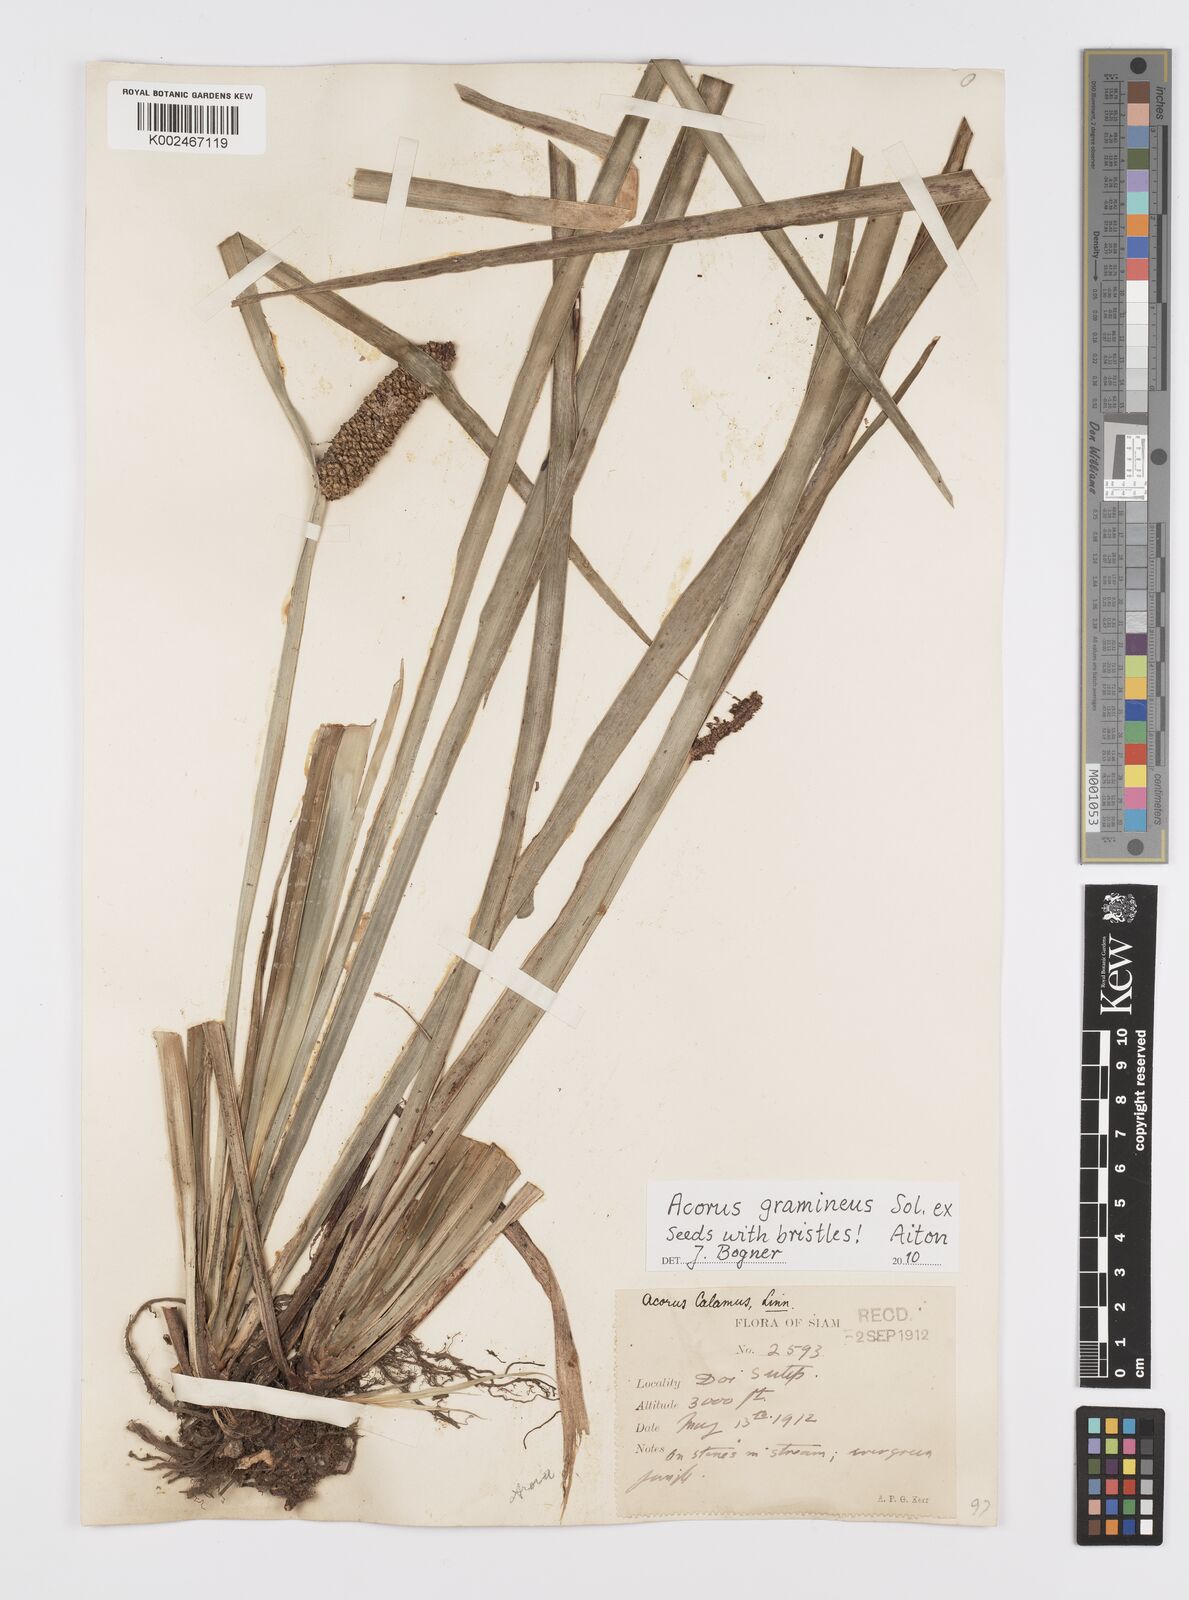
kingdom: Plantae
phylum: Tracheophyta
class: Liliopsida
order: Acorales
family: Acoraceae
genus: Acorus
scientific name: Acorus gramineus
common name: Slender sweet-flag
